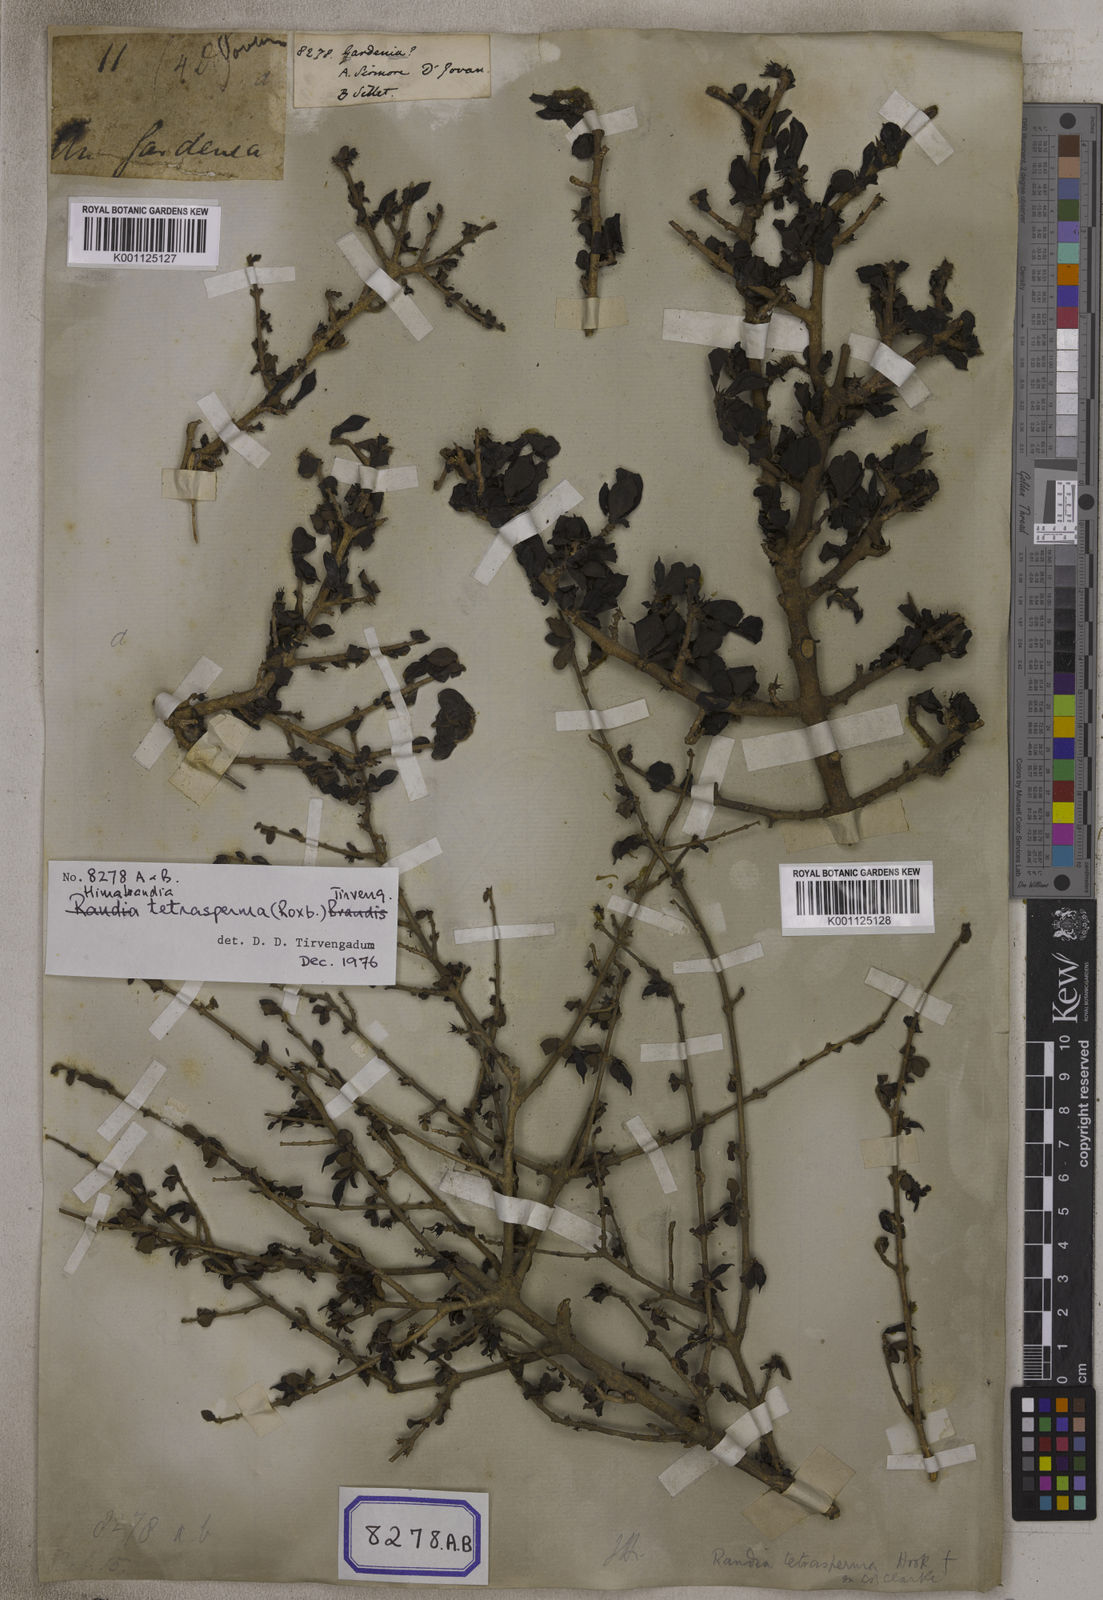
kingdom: Plantae
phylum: Tracheophyta
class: Magnoliopsida
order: Gentianales
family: Rubiaceae
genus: Gardenia
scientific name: Gardenia
